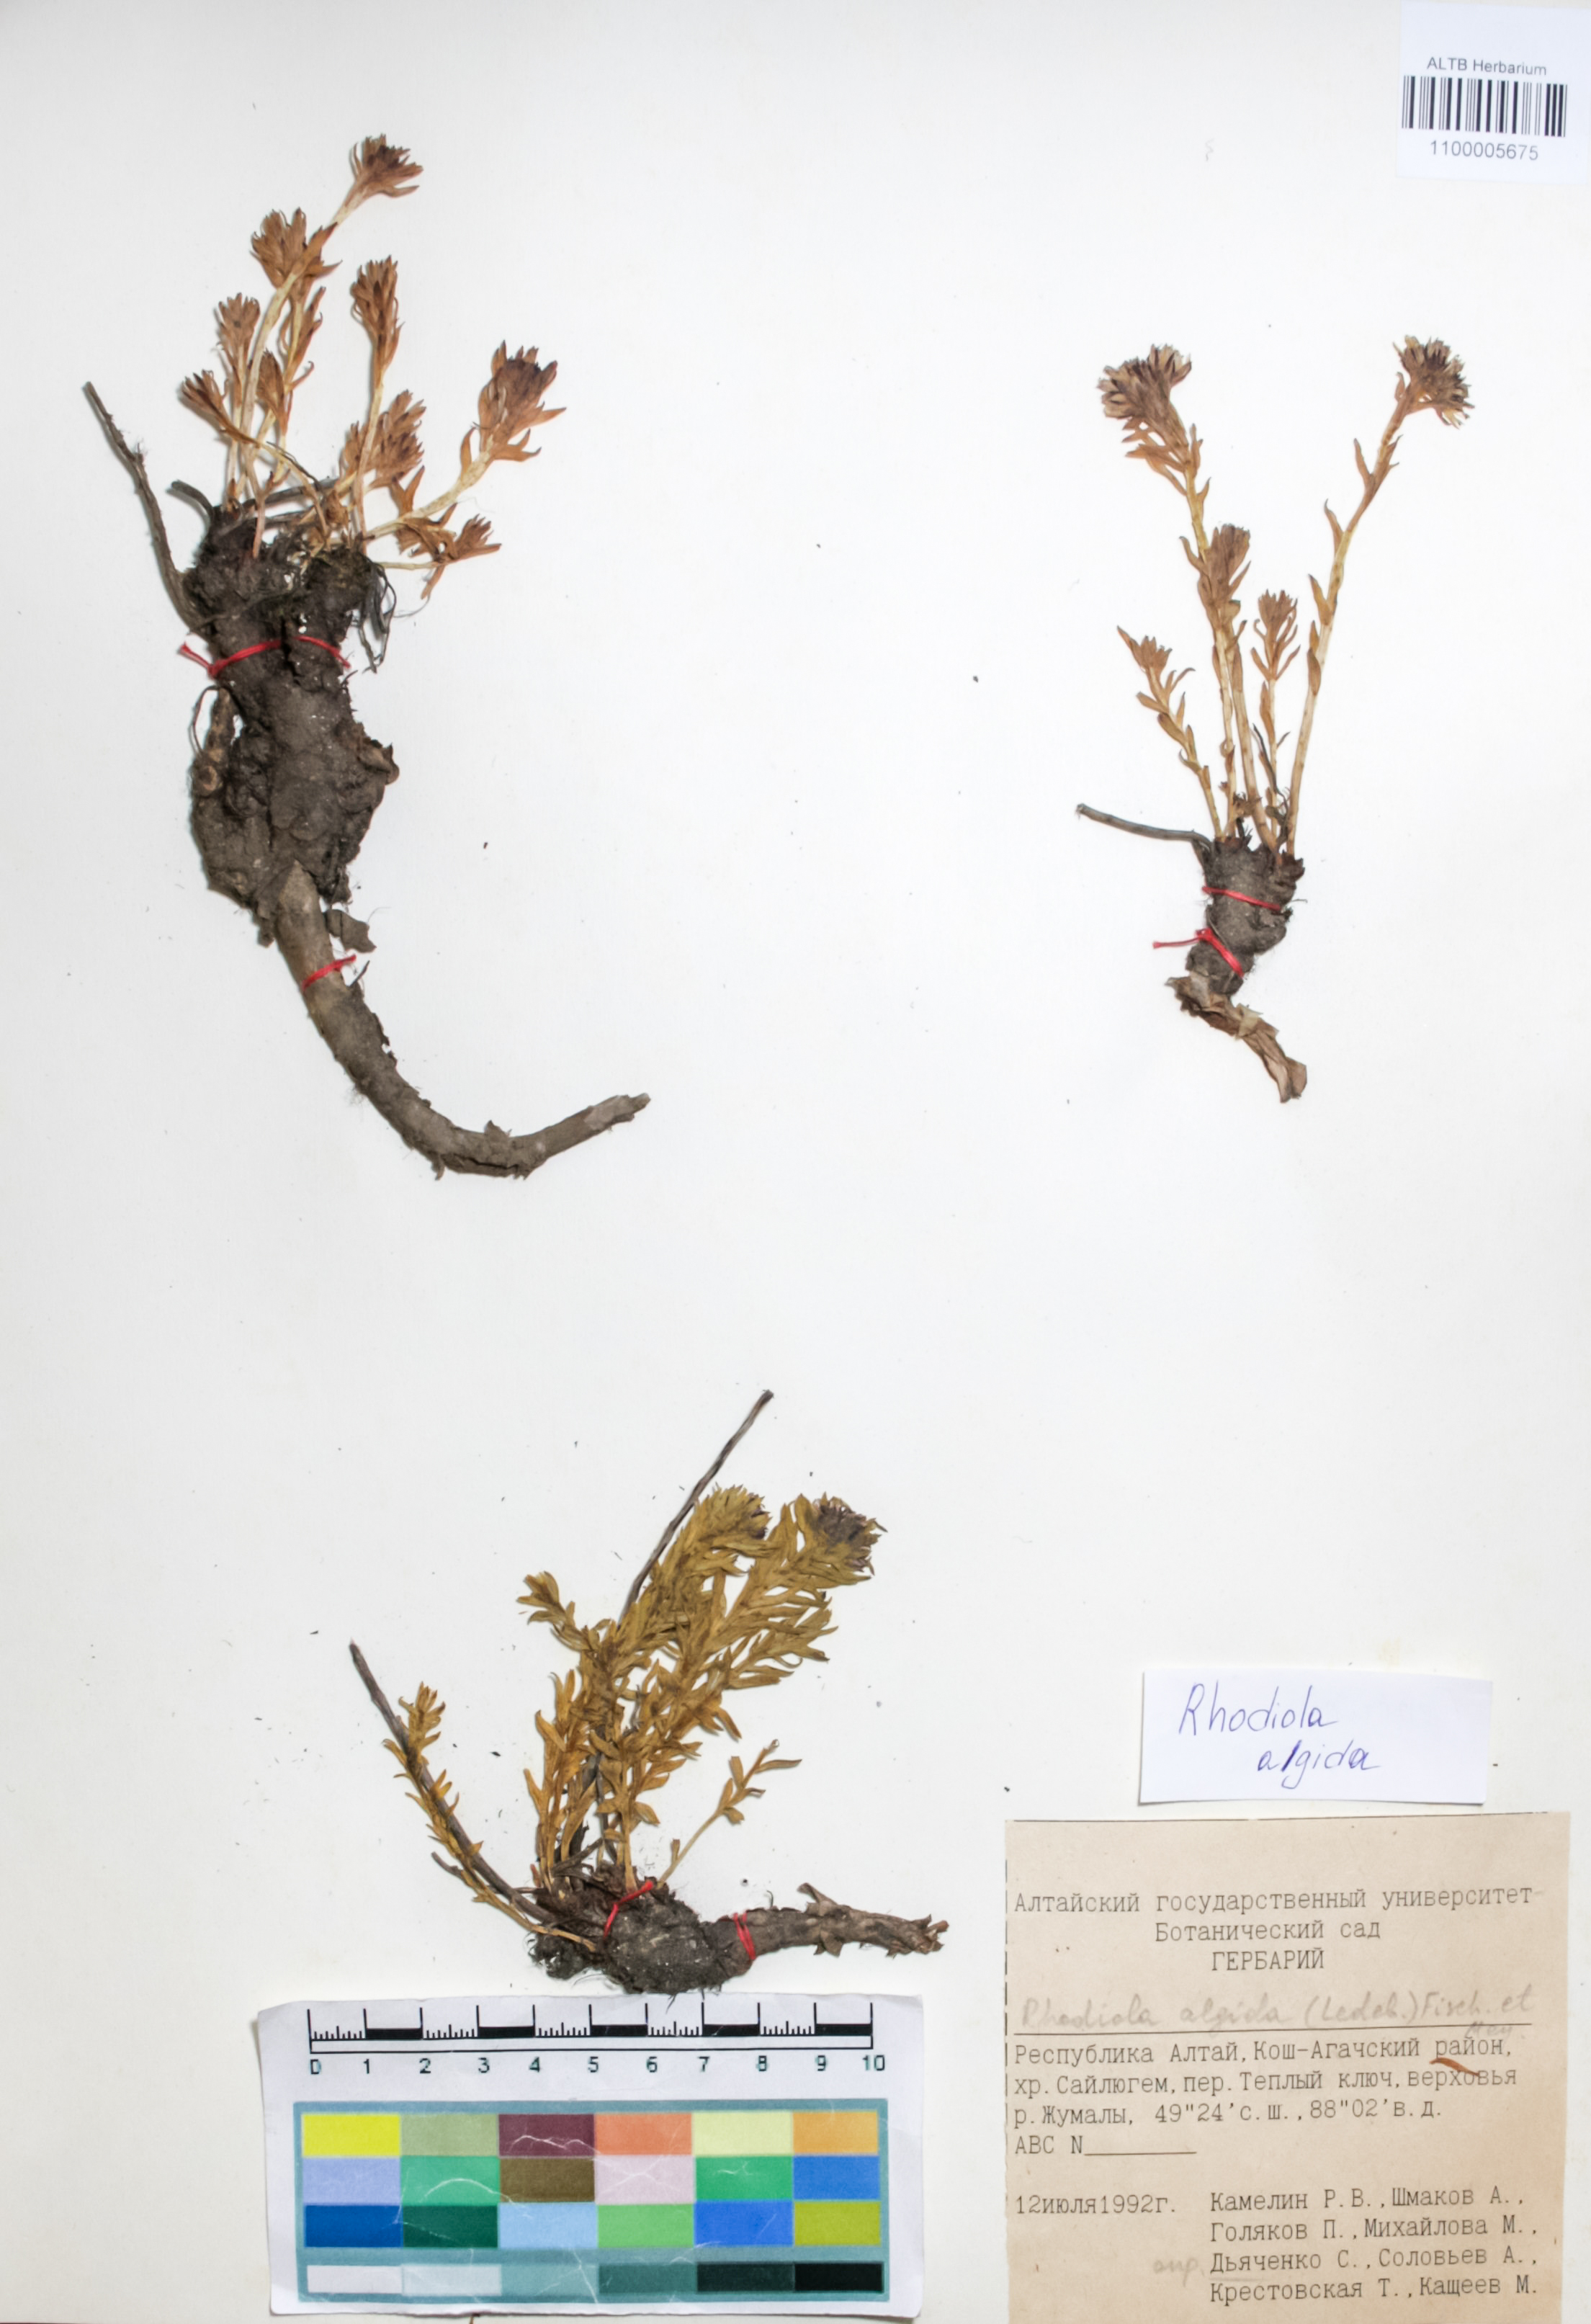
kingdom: Plantae
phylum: Tracheophyta
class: Magnoliopsida
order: Saxifragales
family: Crassulaceae
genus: Rhodiola
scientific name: Rhodiola algida
